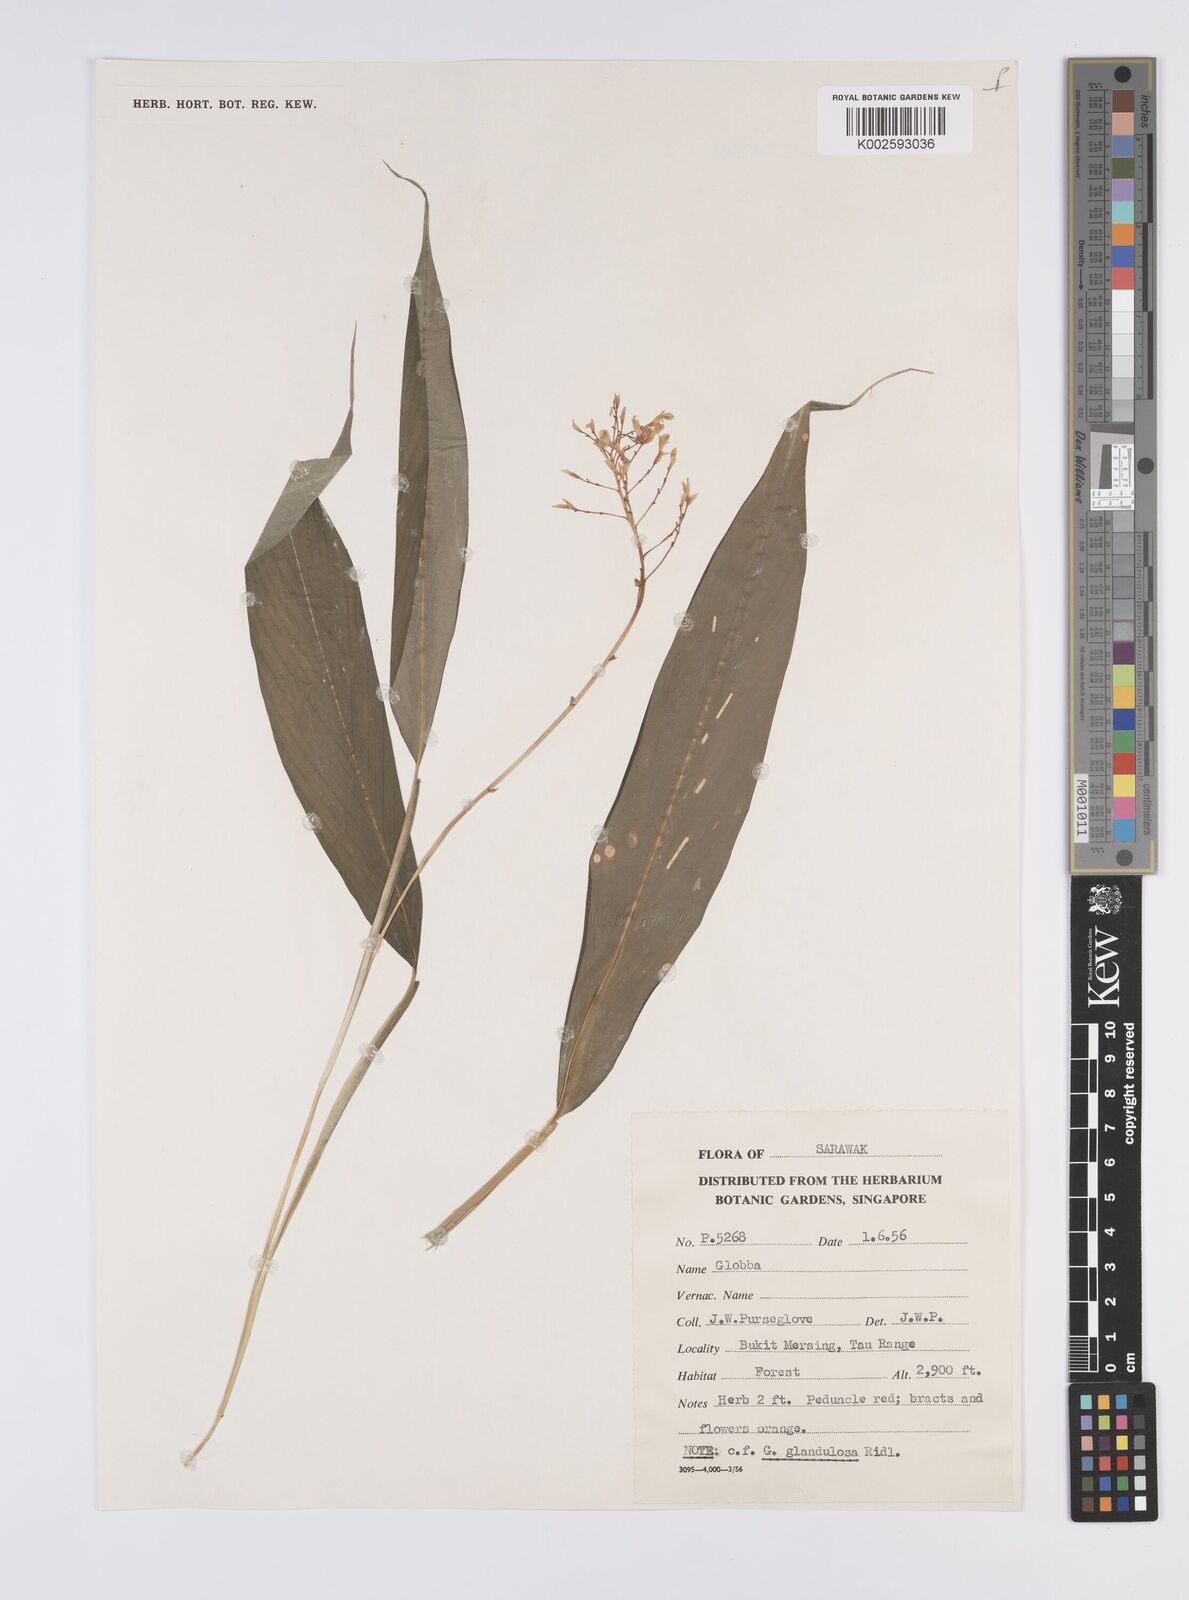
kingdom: Plantae
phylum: Tracheophyta
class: Liliopsida
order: Zingiberales
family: Zingiberaceae
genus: Globba
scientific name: Globba brachyanthera
